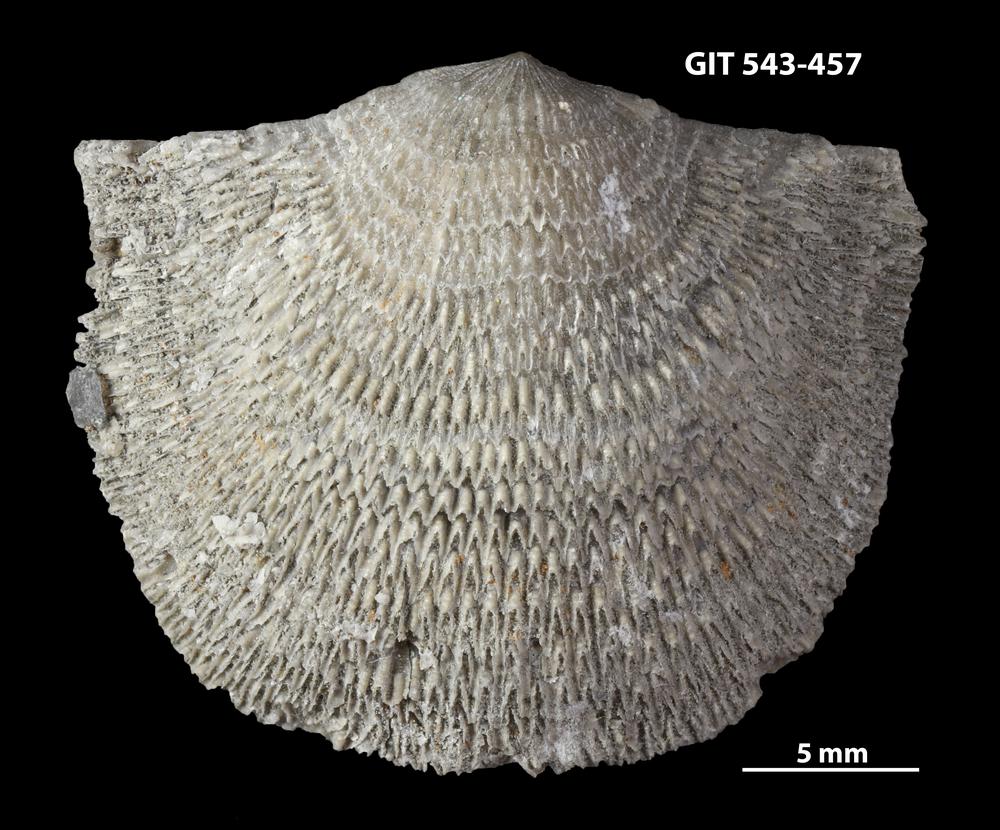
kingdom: Animalia
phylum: Brachiopoda
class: Rhynchonellata
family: Clitambonitidae
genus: Clitambonites
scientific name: Clitambonites squamatus
